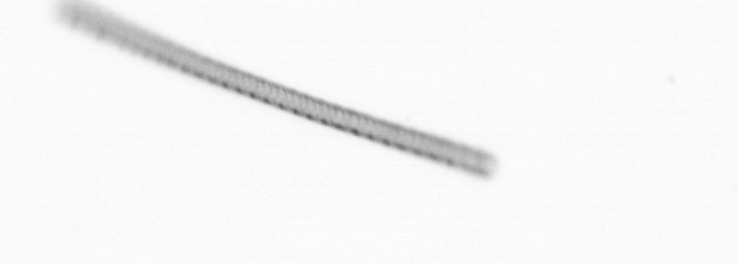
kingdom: Chromista
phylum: Ochrophyta
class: Bacillariophyceae
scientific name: Bacillariophyceae
